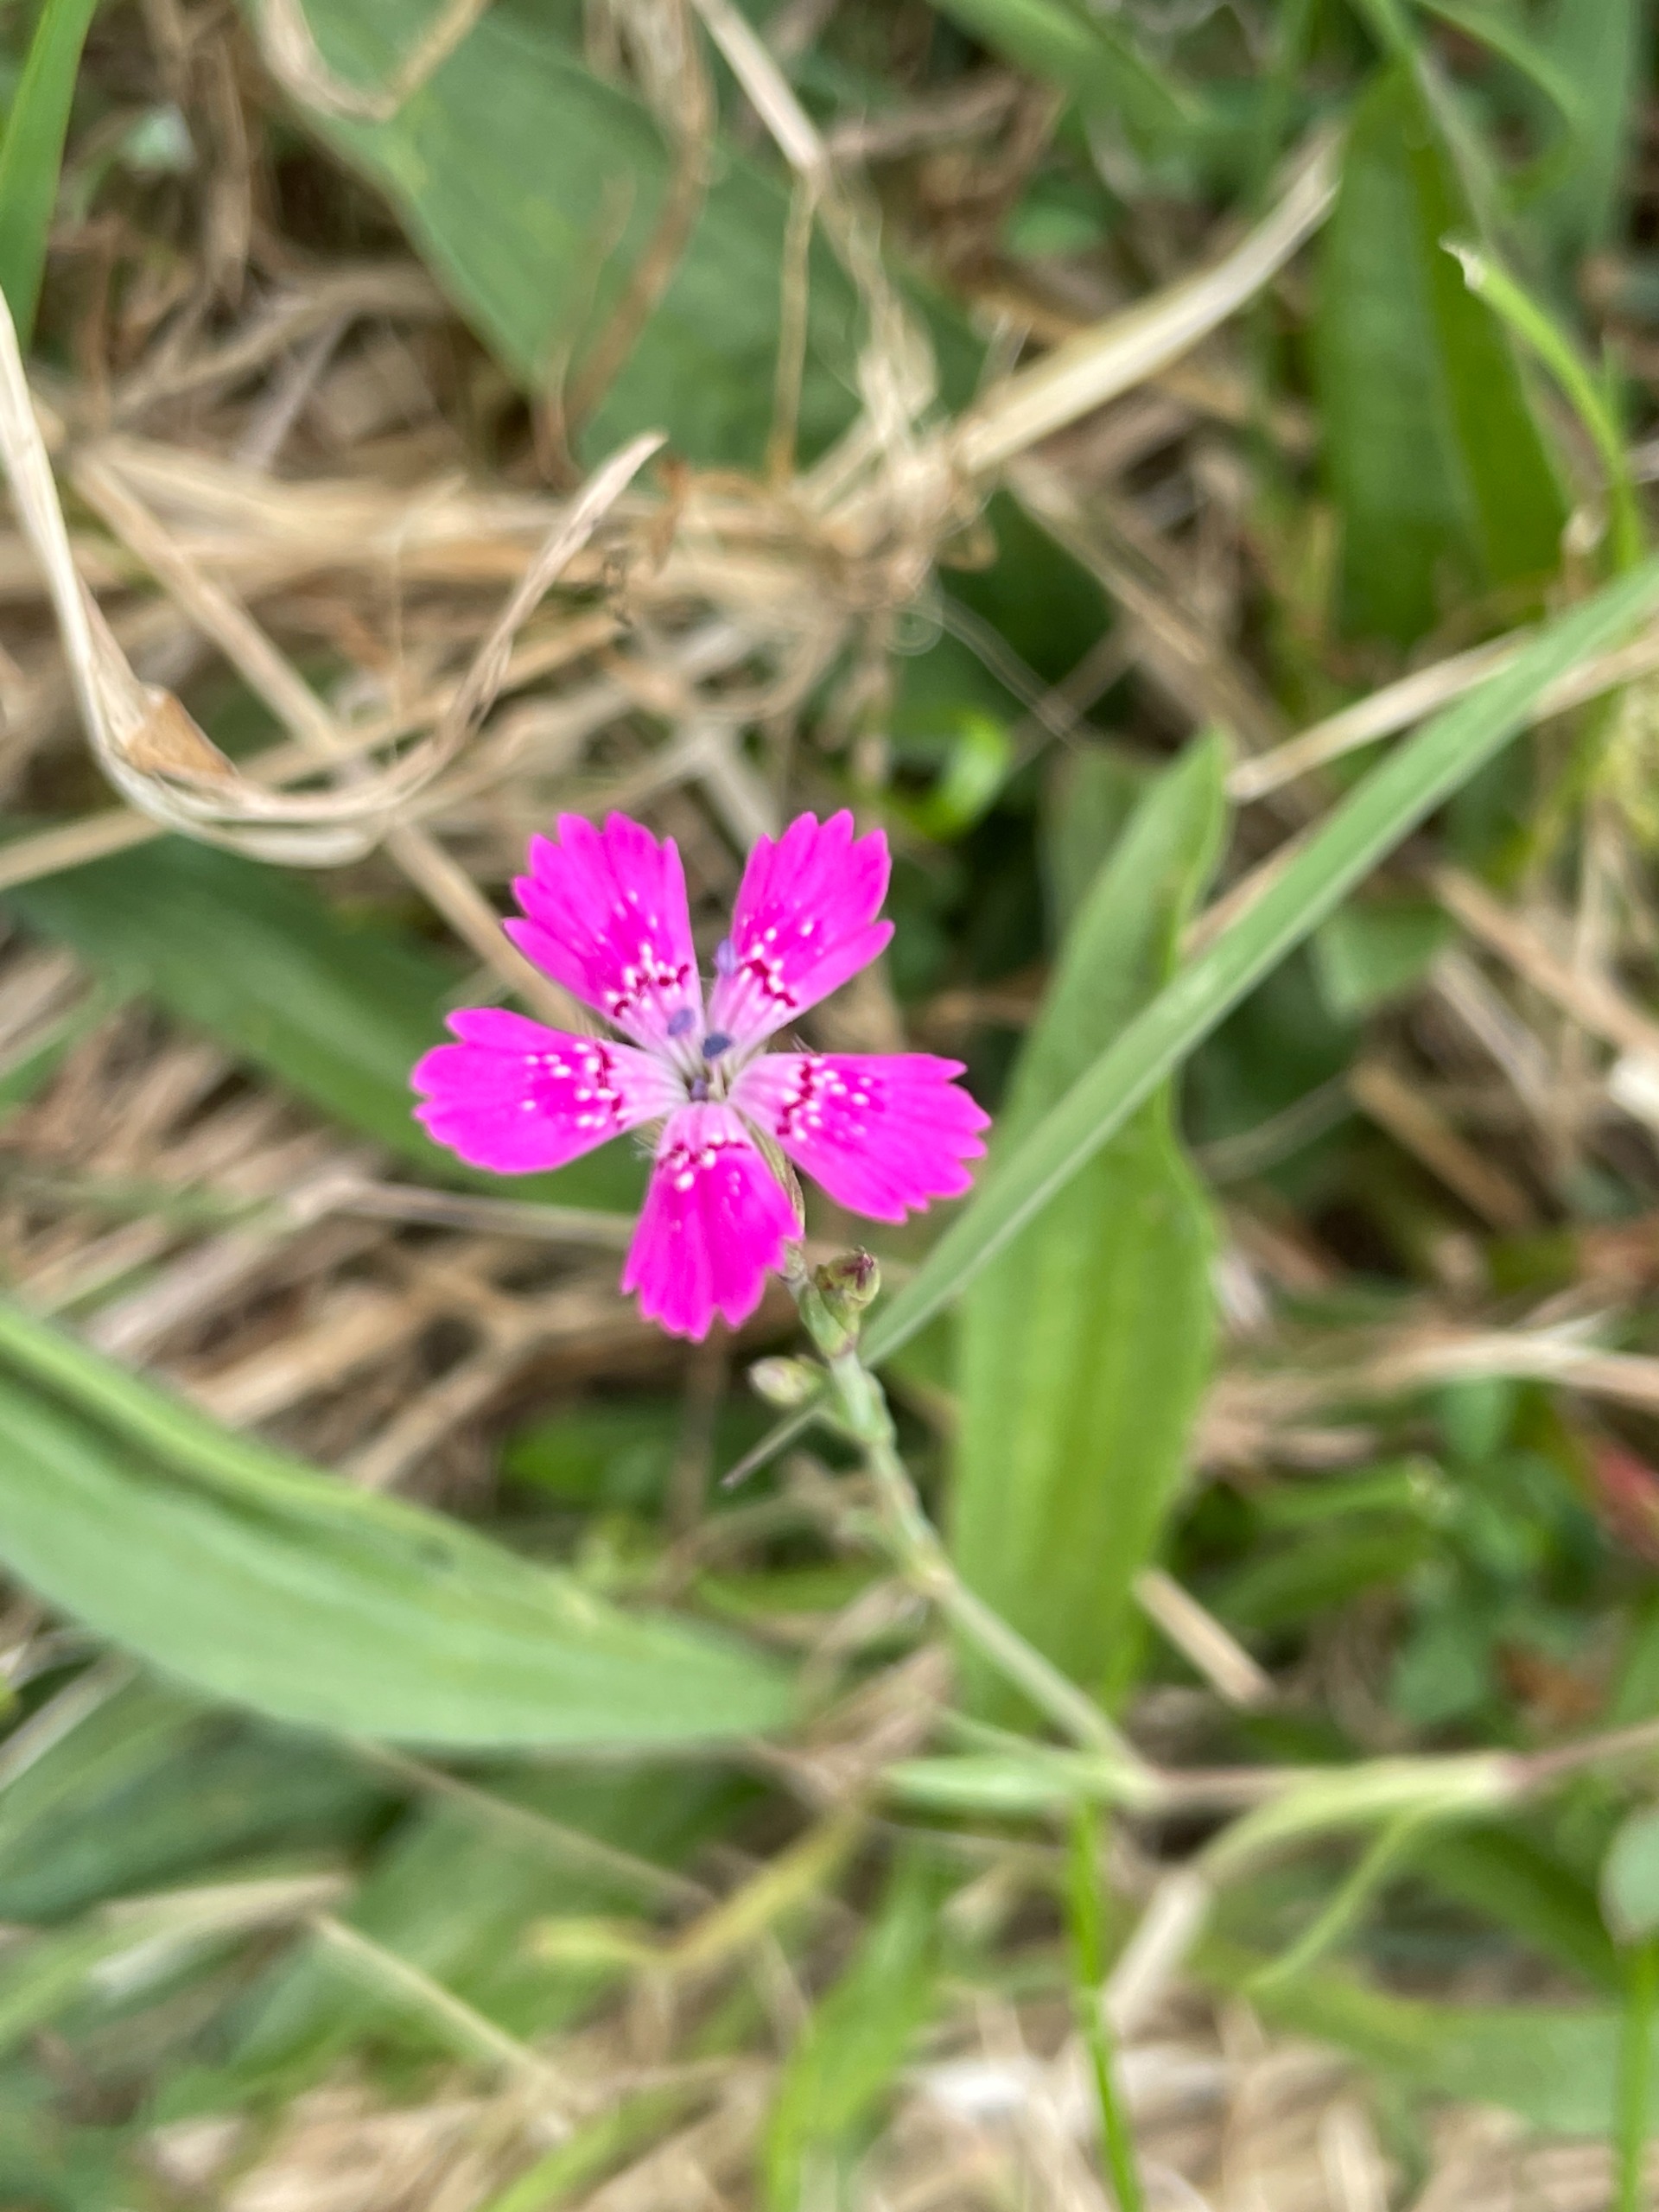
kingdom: Plantae
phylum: Tracheophyta
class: Magnoliopsida
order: Caryophyllales
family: Caryophyllaceae
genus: Dianthus
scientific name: Dianthus deltoides
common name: Bakke-nellike
